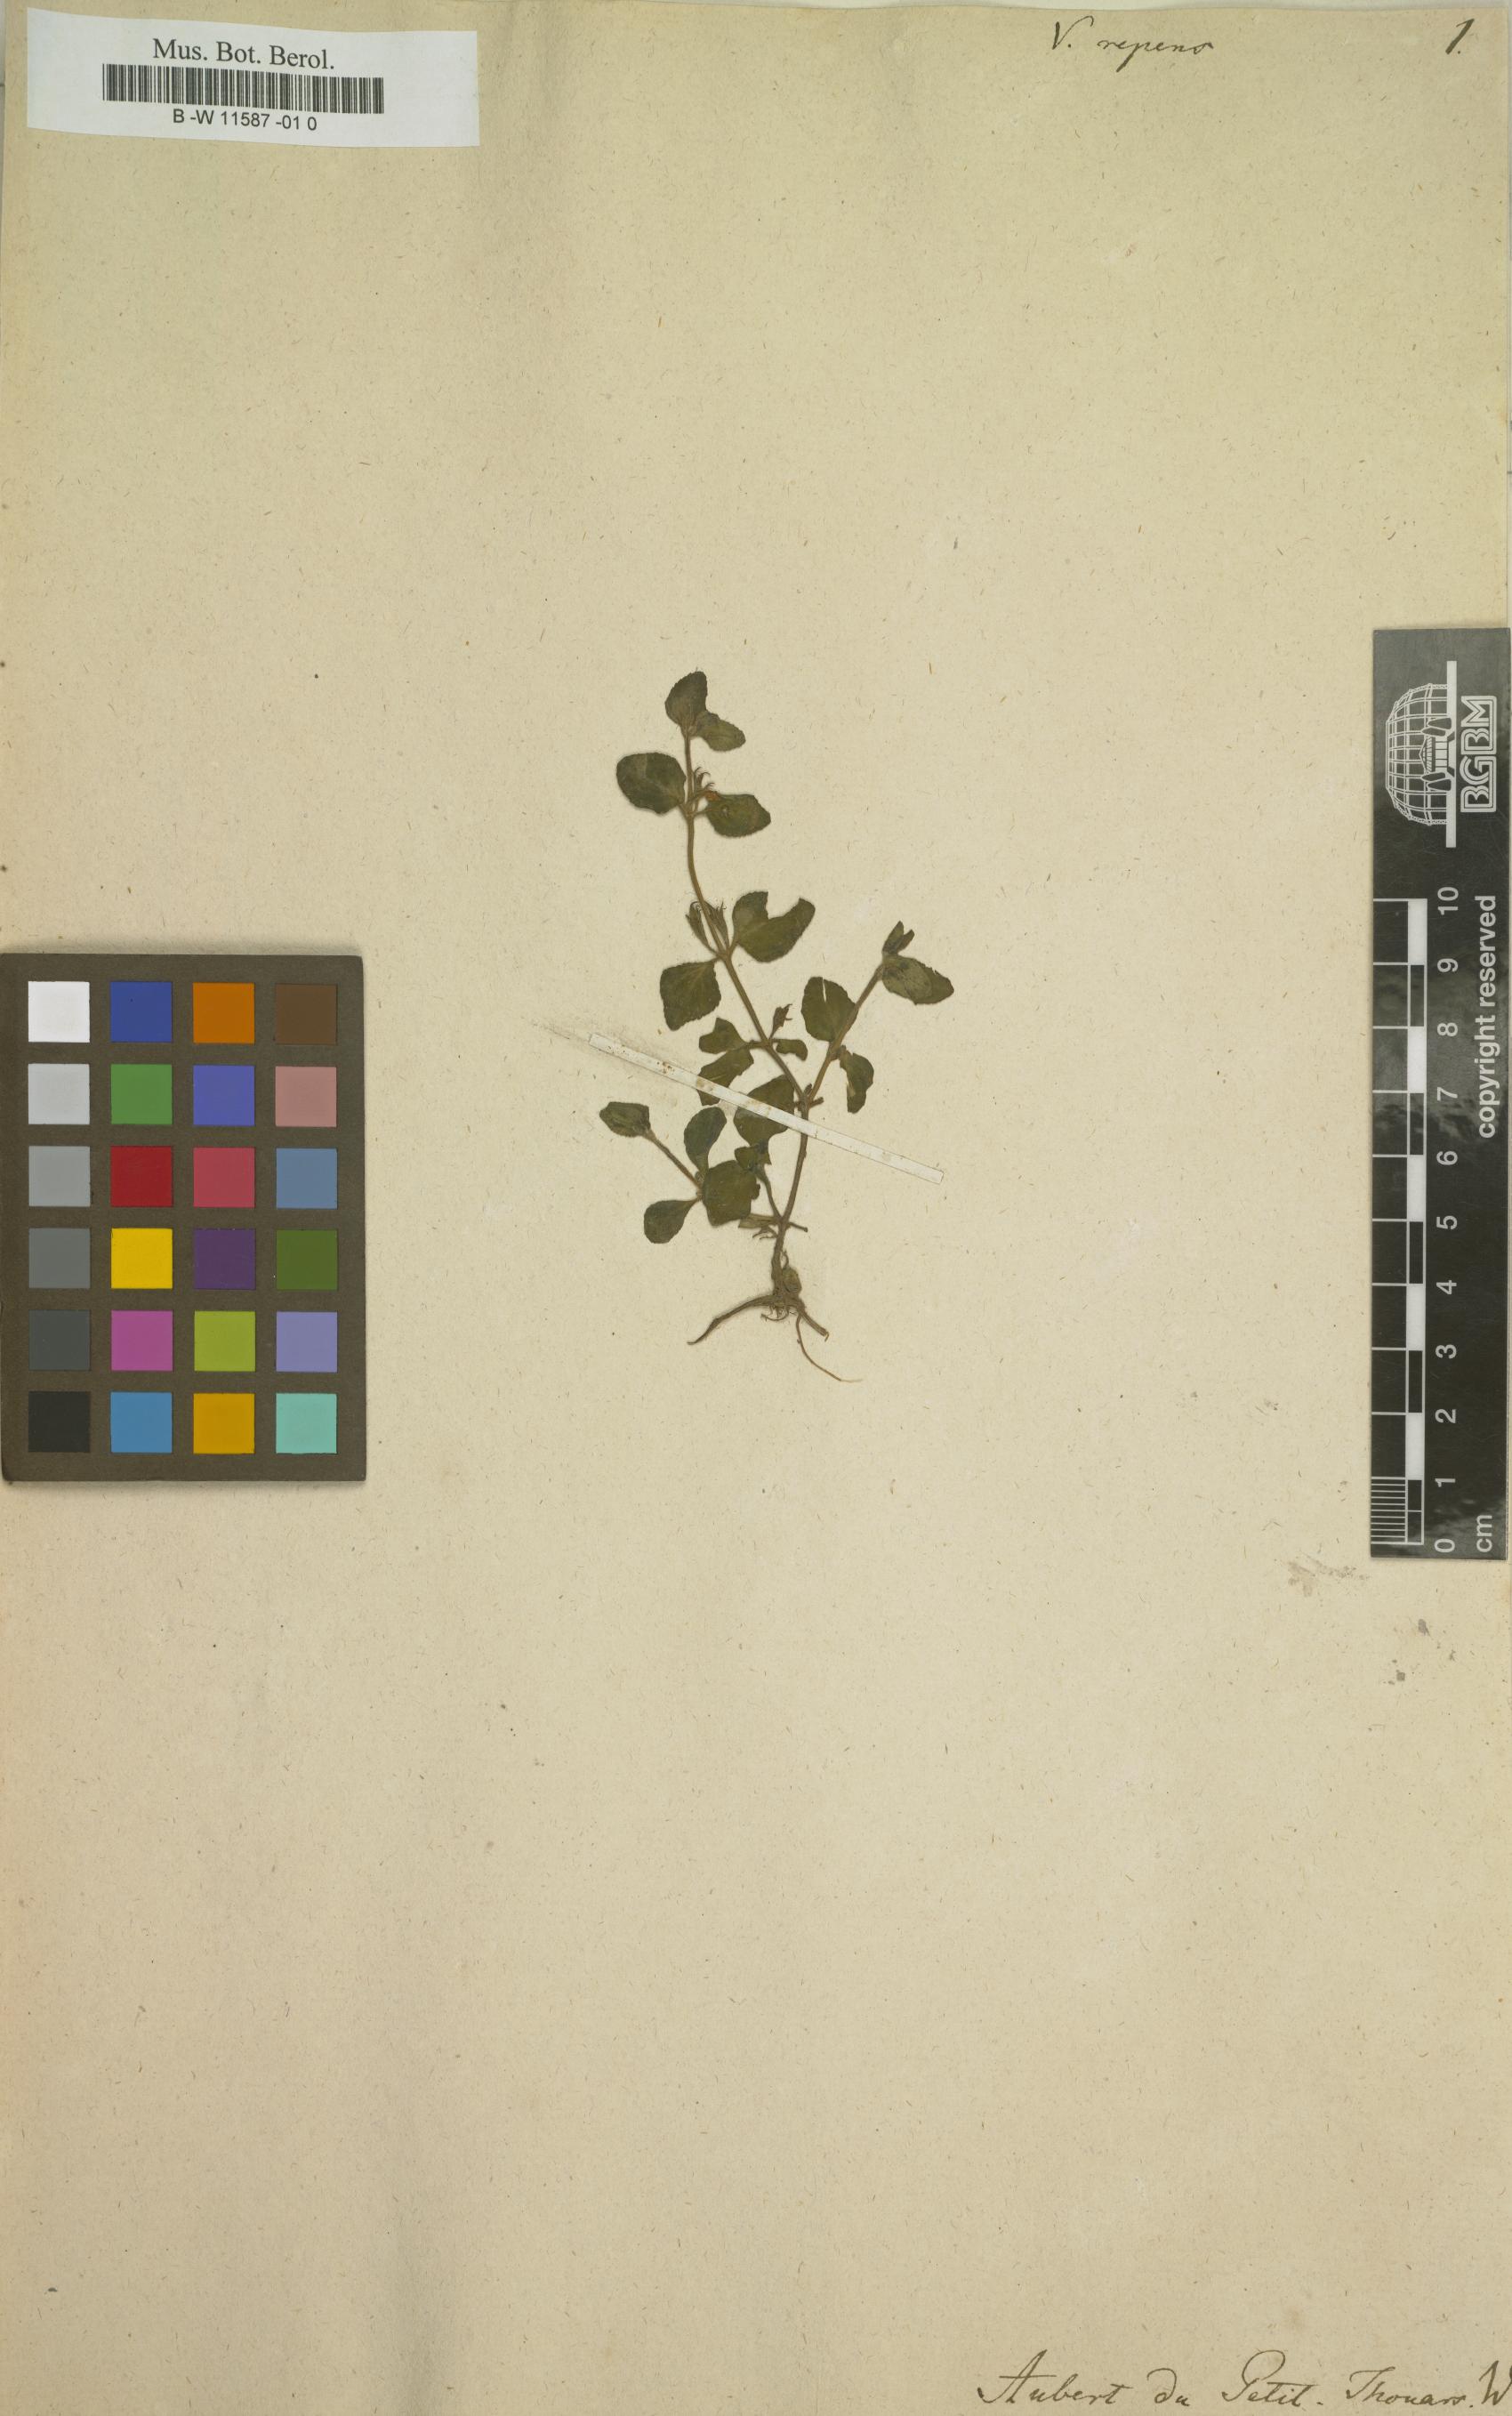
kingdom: Plantae
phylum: Tracheophyta
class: Magnoliopsida
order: Lamiales
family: Linderniaceae
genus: Vandellia
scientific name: Vandellia diffusa
